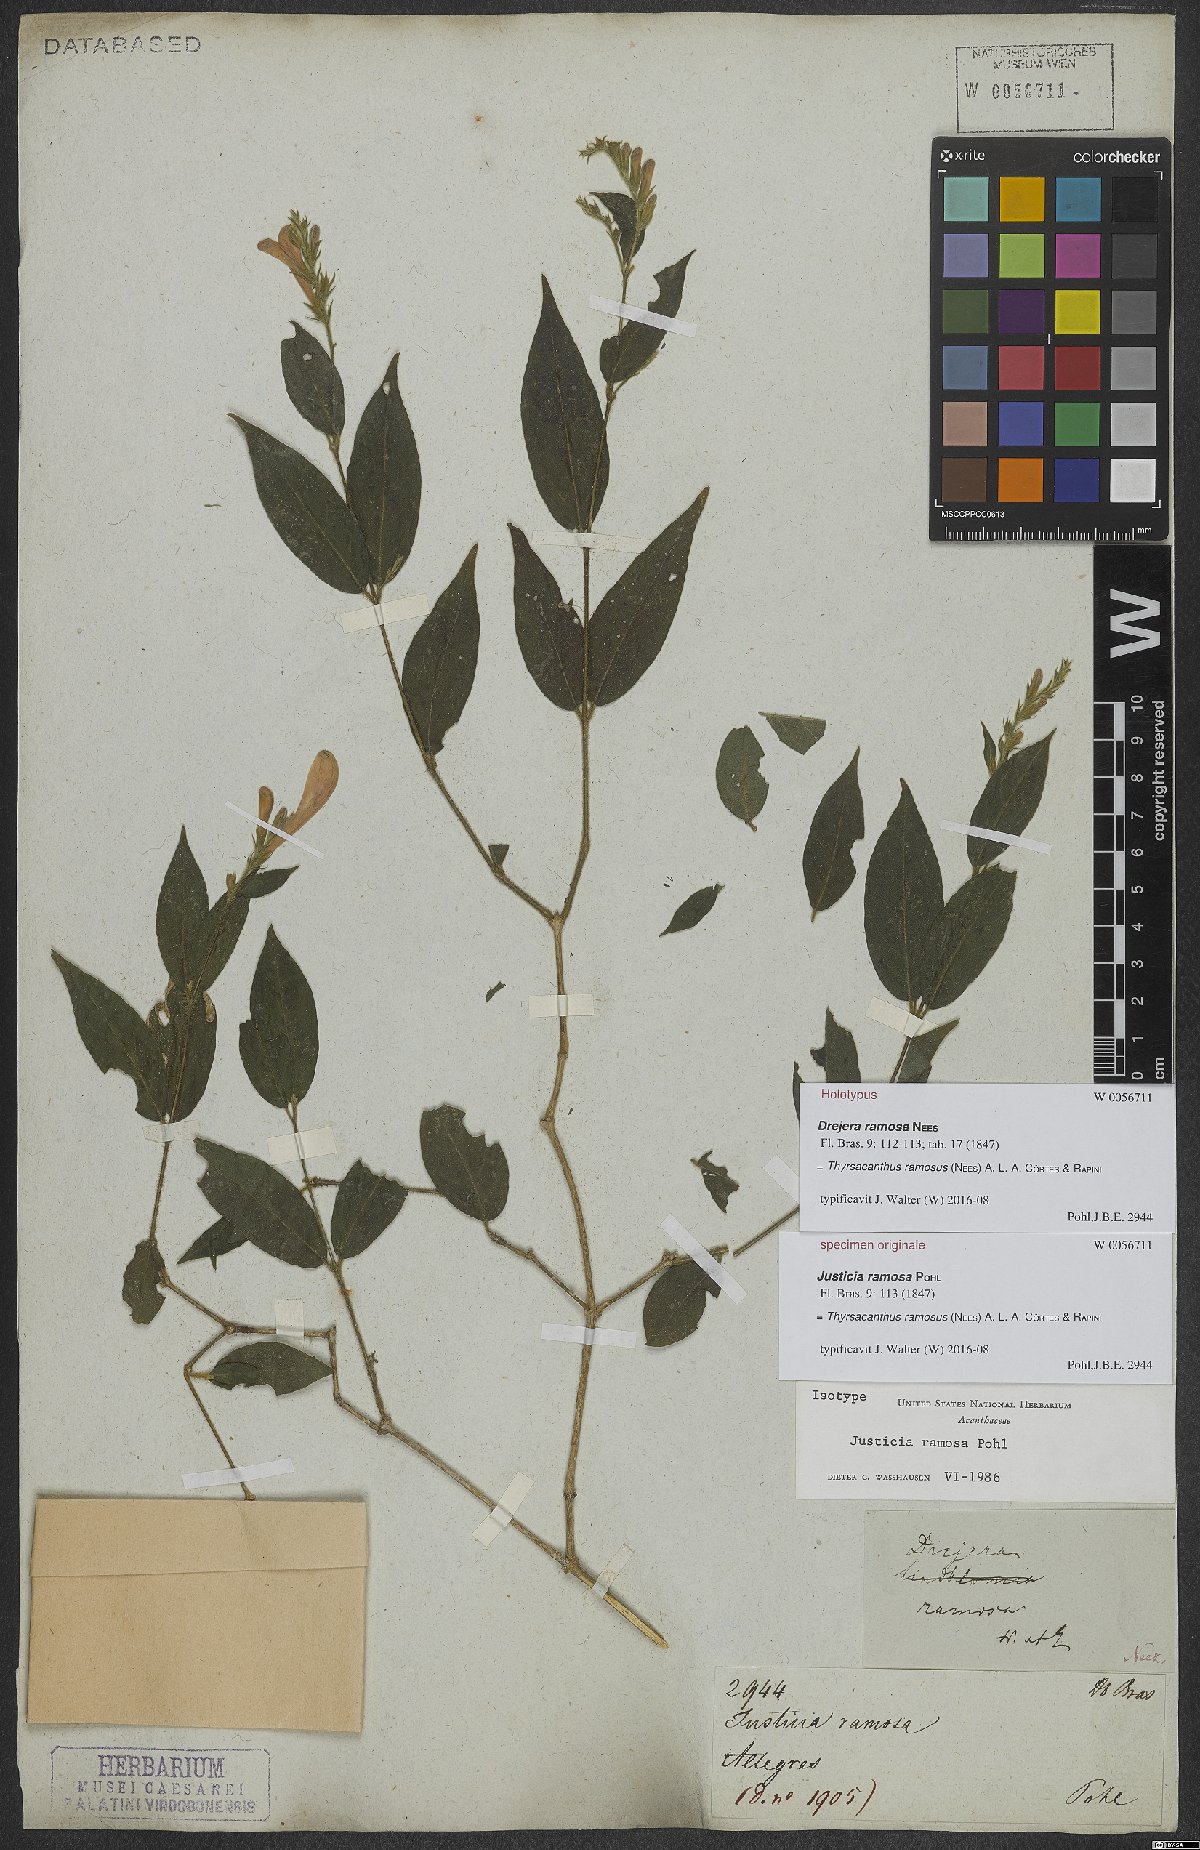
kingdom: Plantae
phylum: Tracheophyta
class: Magnoliopsida
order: Lamiales
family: Acanthaceae
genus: Thyrsacanthus
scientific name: Thyrsacanthus ramosus
